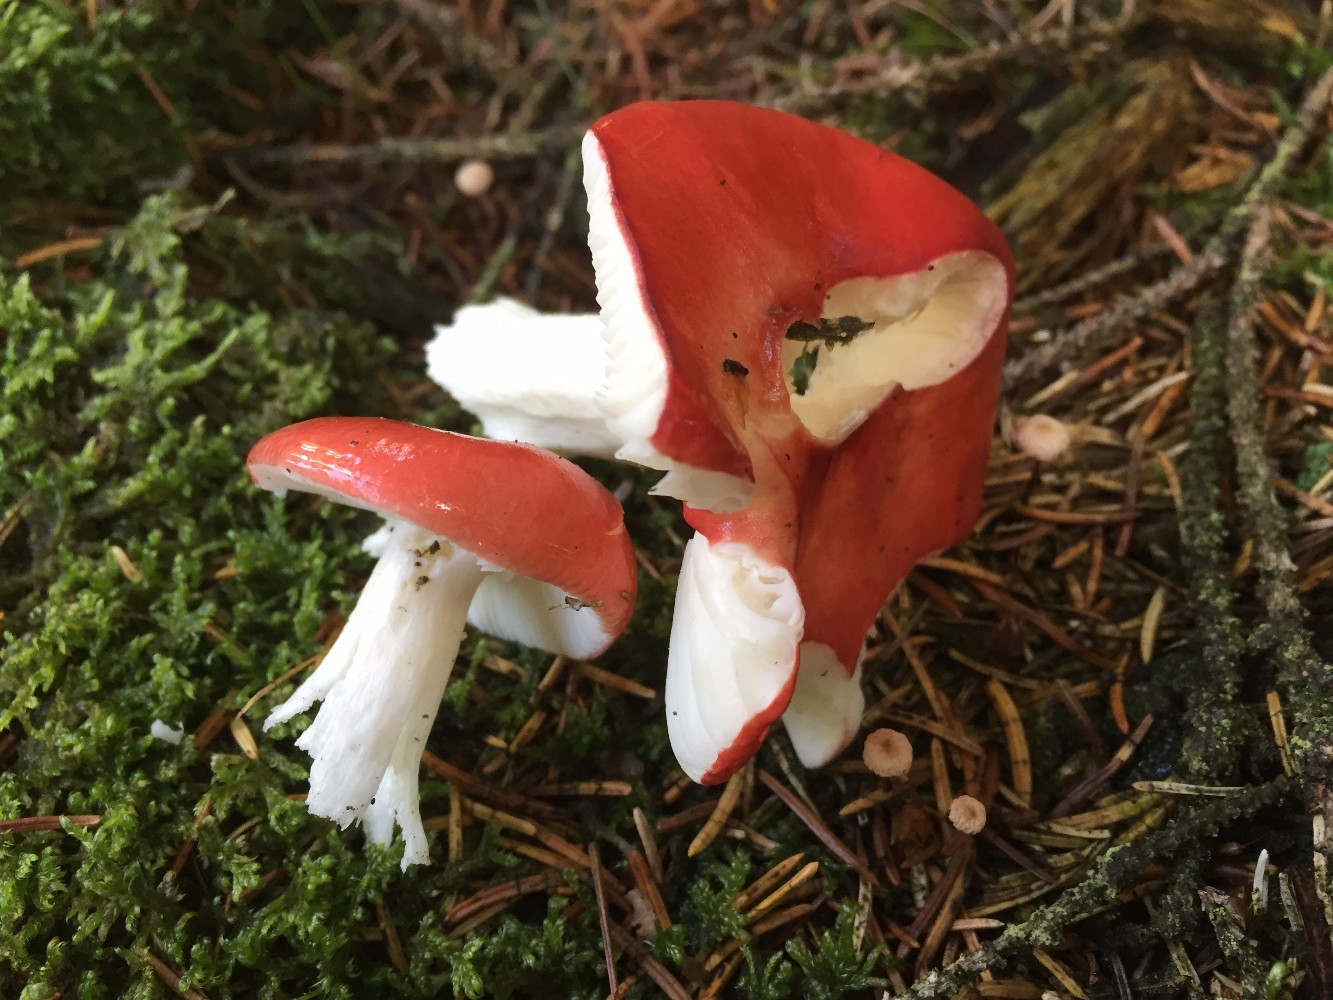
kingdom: Fungi
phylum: Basidiomycota
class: Agaricomycetes
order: Russulales
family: Russulaceae
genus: Russula
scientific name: Russula emetica
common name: stor gift-skørhat
